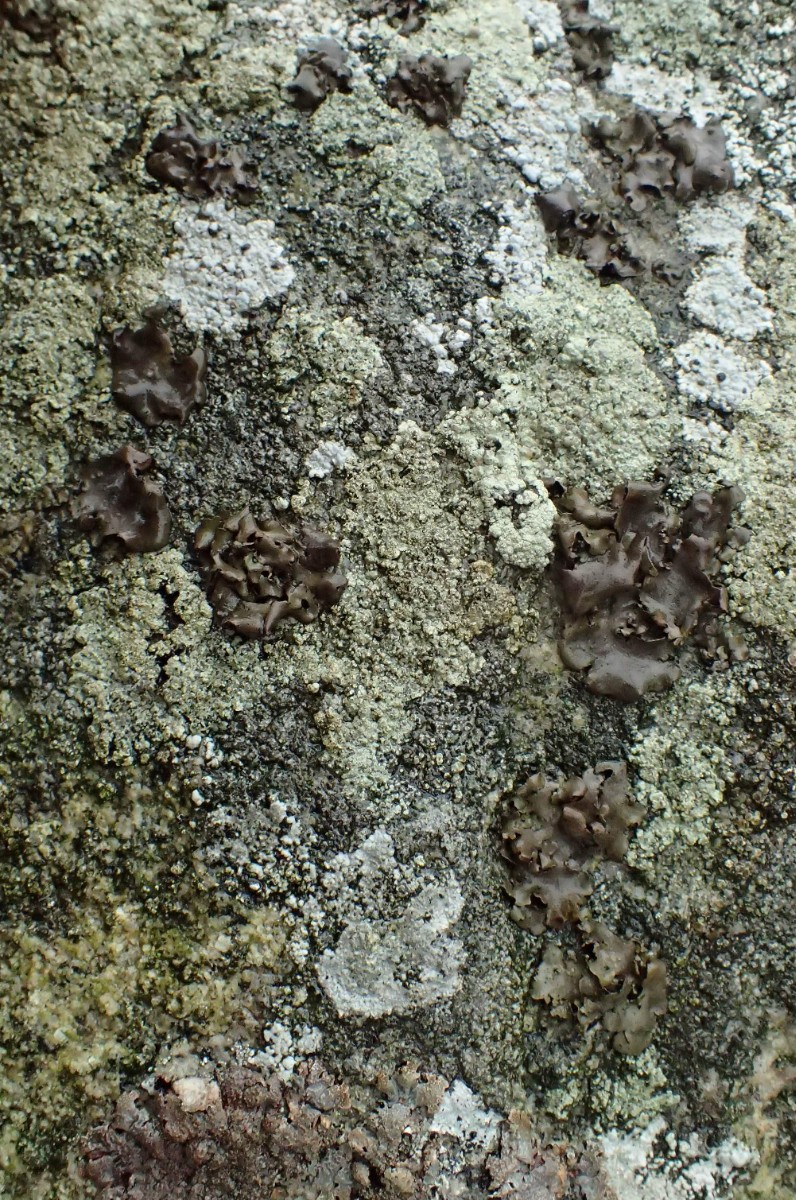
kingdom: Fungi
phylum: Ascomycota
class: Lecanoromycetes
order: Umbilicariales
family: Umbilicariaceae
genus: Umbilicaria
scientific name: Umbilicaria polyphylla
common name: glat navlelav
